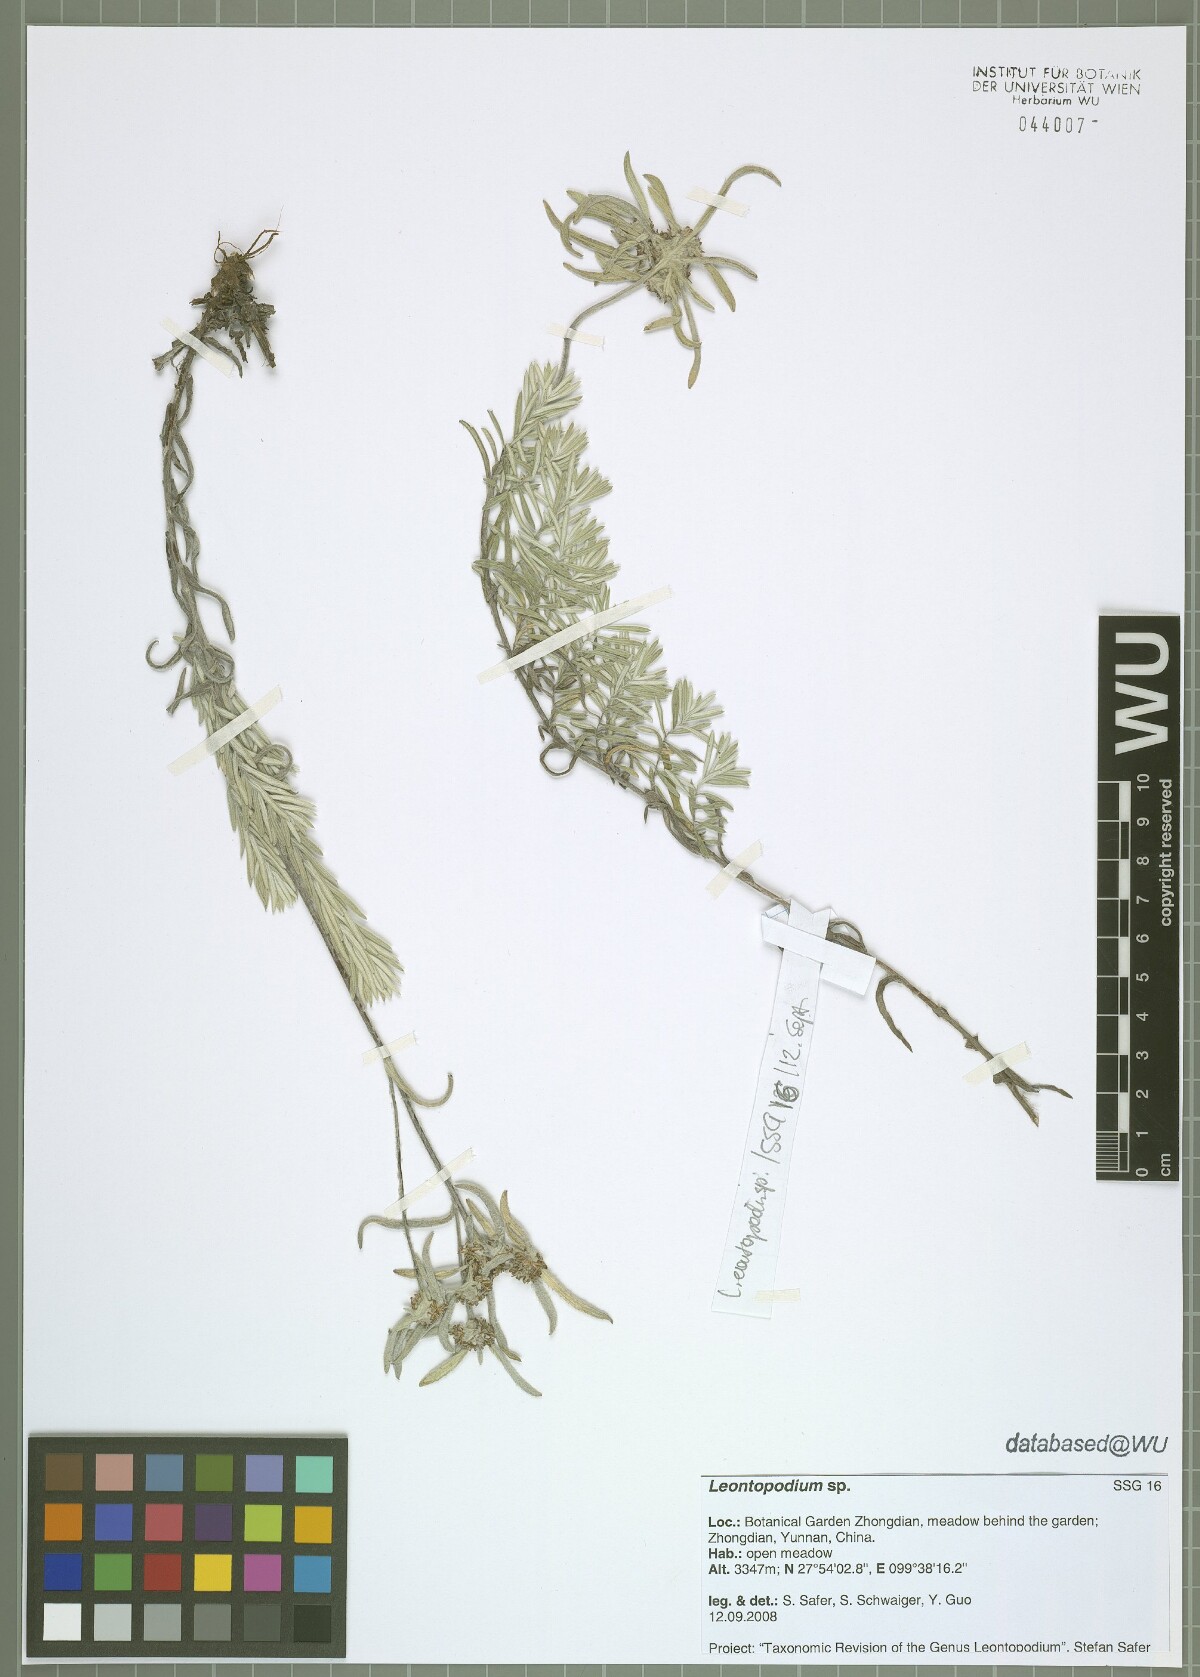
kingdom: Plantae
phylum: Tracheophyta
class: Magnoliopsida
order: Asterales
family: Asteraceae
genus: Leontopodium
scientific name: Leontopodium
